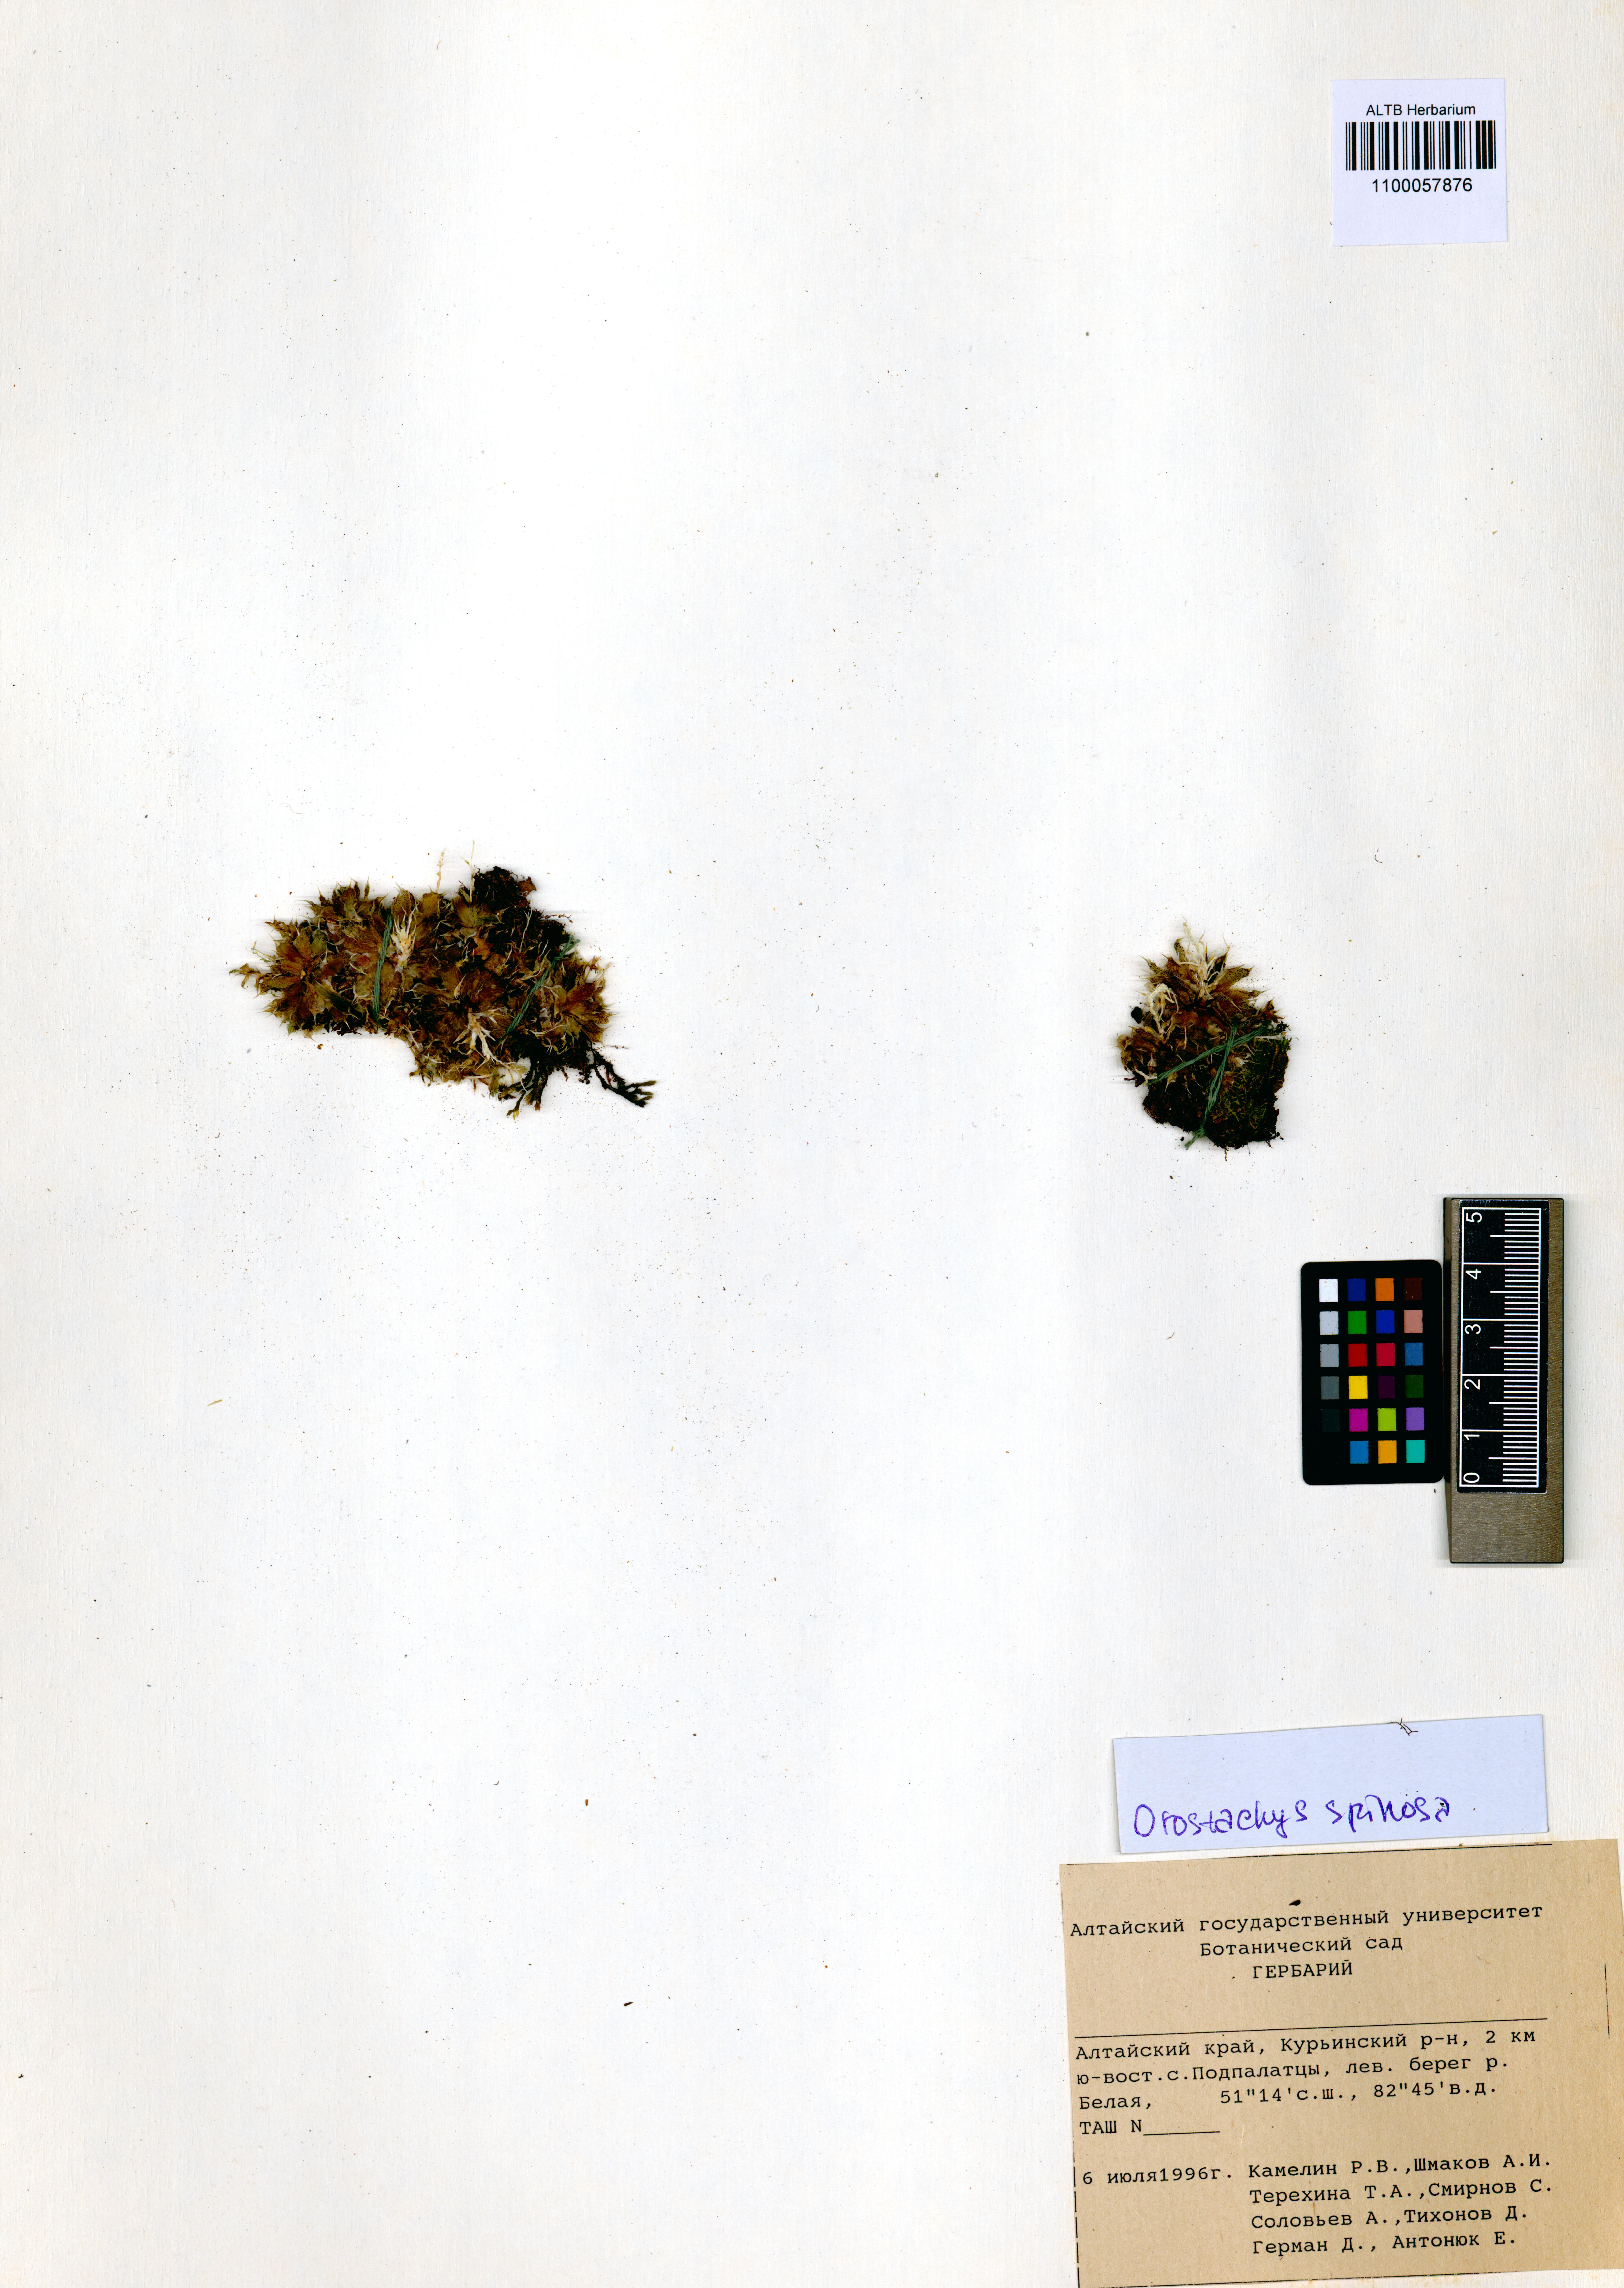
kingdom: Plantae
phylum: Tracheophyta
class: Magnoliopsida
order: Saxifragales
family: Crassulaceae
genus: Orostachys
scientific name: Orostachys spinosa
